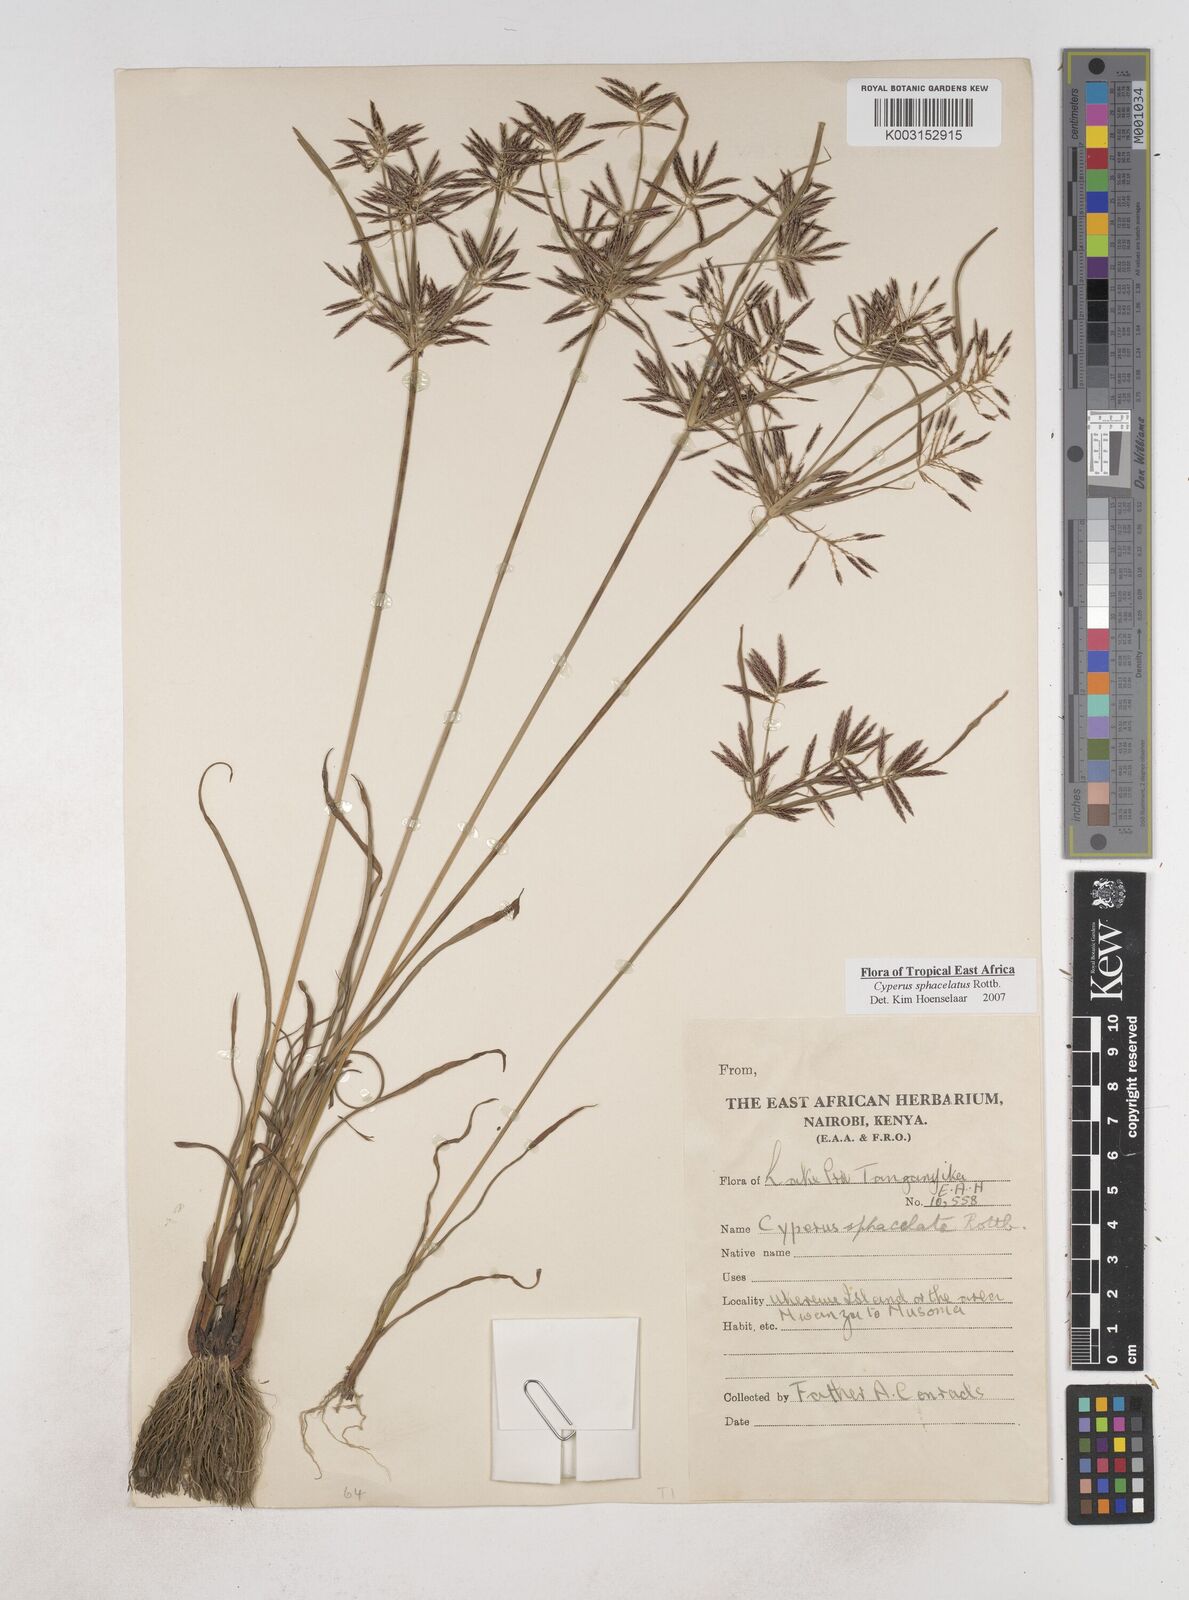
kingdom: Plantae
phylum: Tracheophyta
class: Liliopsida
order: Poales
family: Cyperaceae
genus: Cyperus
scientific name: Cyperus sphacelatus
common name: Roadside flatsedge
